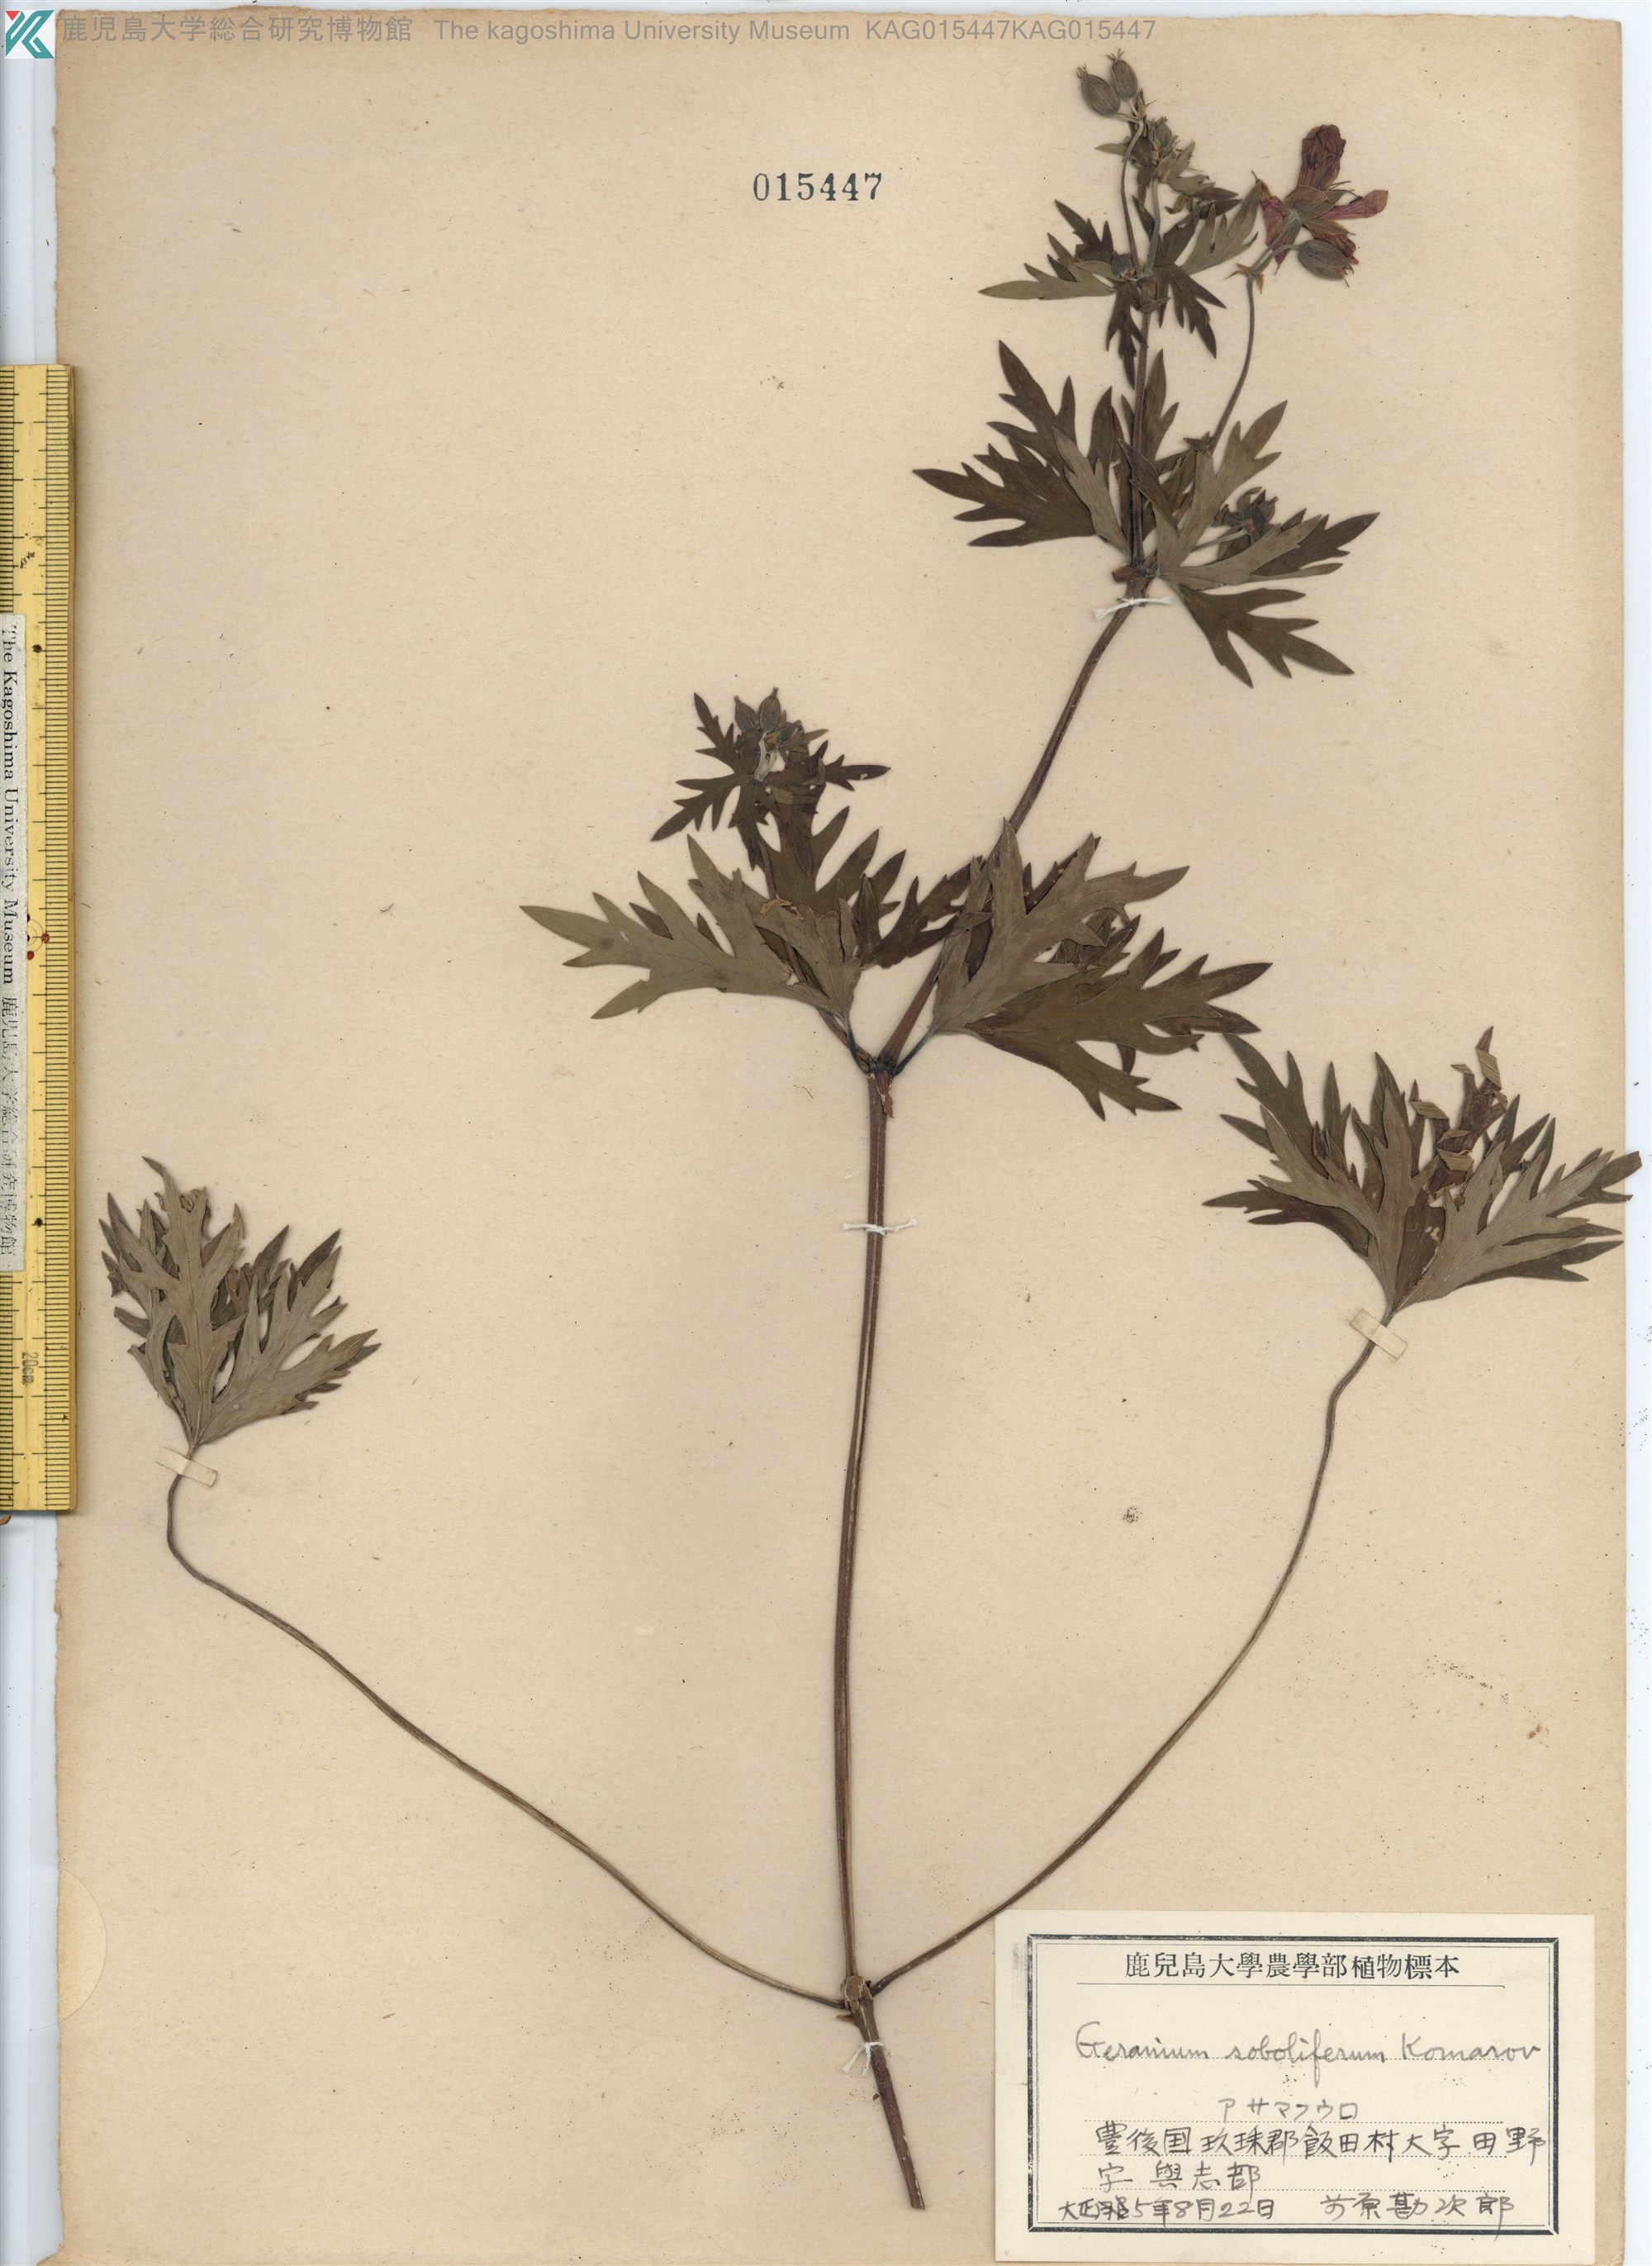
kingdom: Plantae
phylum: Tracheophyta
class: Magnoliopsida
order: Geraniales
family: Geraniaceae
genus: Geranium
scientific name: Geranium soboliferum
